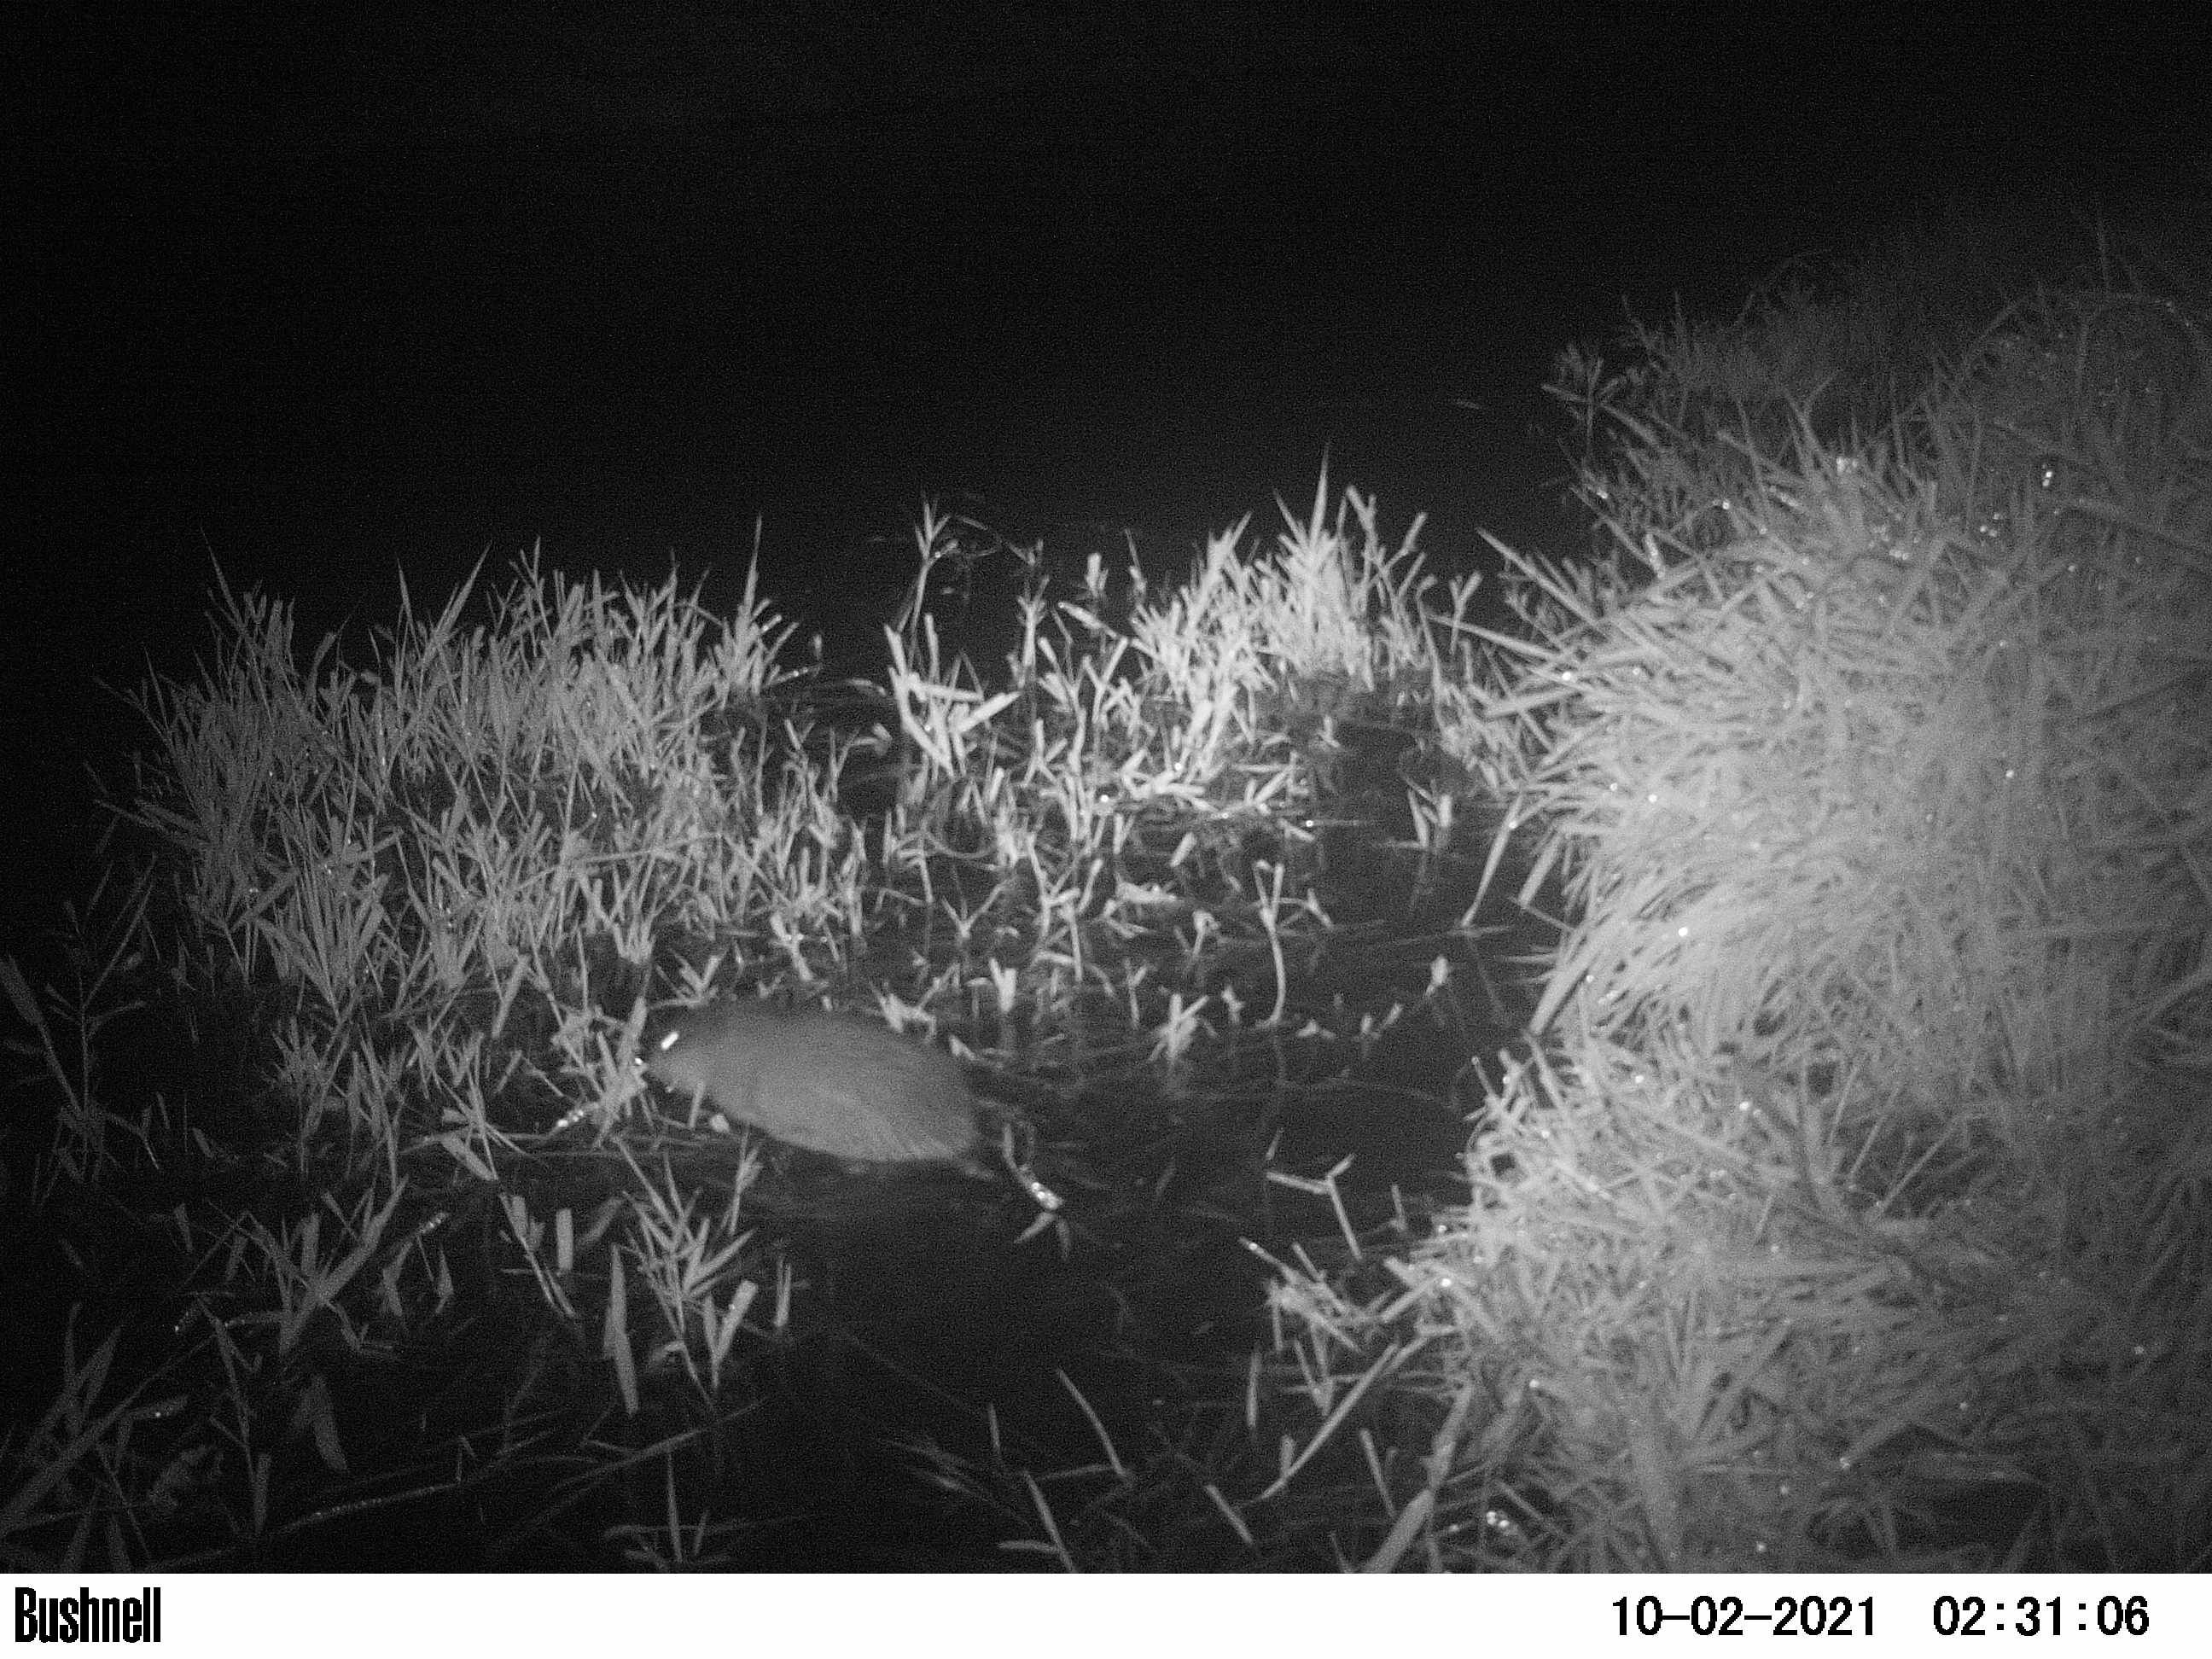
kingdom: Animalia
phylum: Chordata
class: Mammalia
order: Rodentia
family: Cricetidae
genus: Ondatra
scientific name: Ondatra zibethicus
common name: Muskrat
